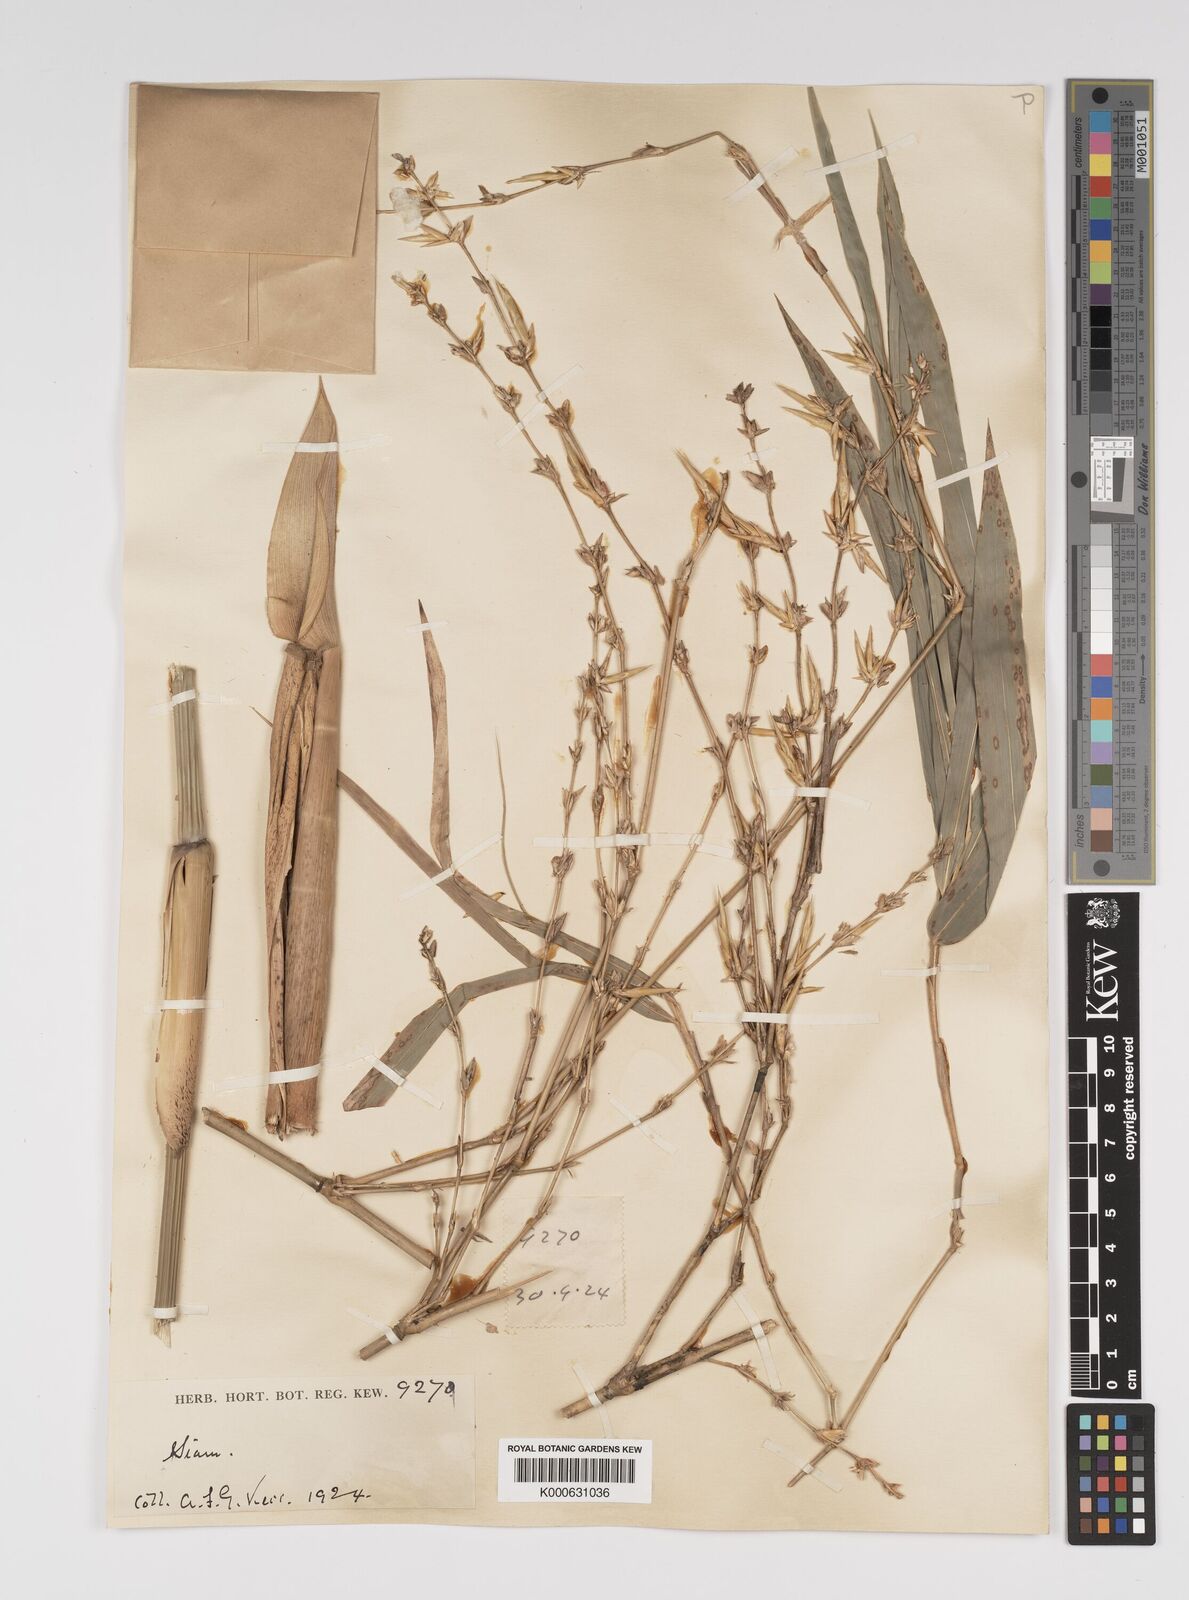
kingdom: Plantae
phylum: Tracheophyta
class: Liliopsida
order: Poales
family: Poaceae
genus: Bambusa
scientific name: Bambusa
